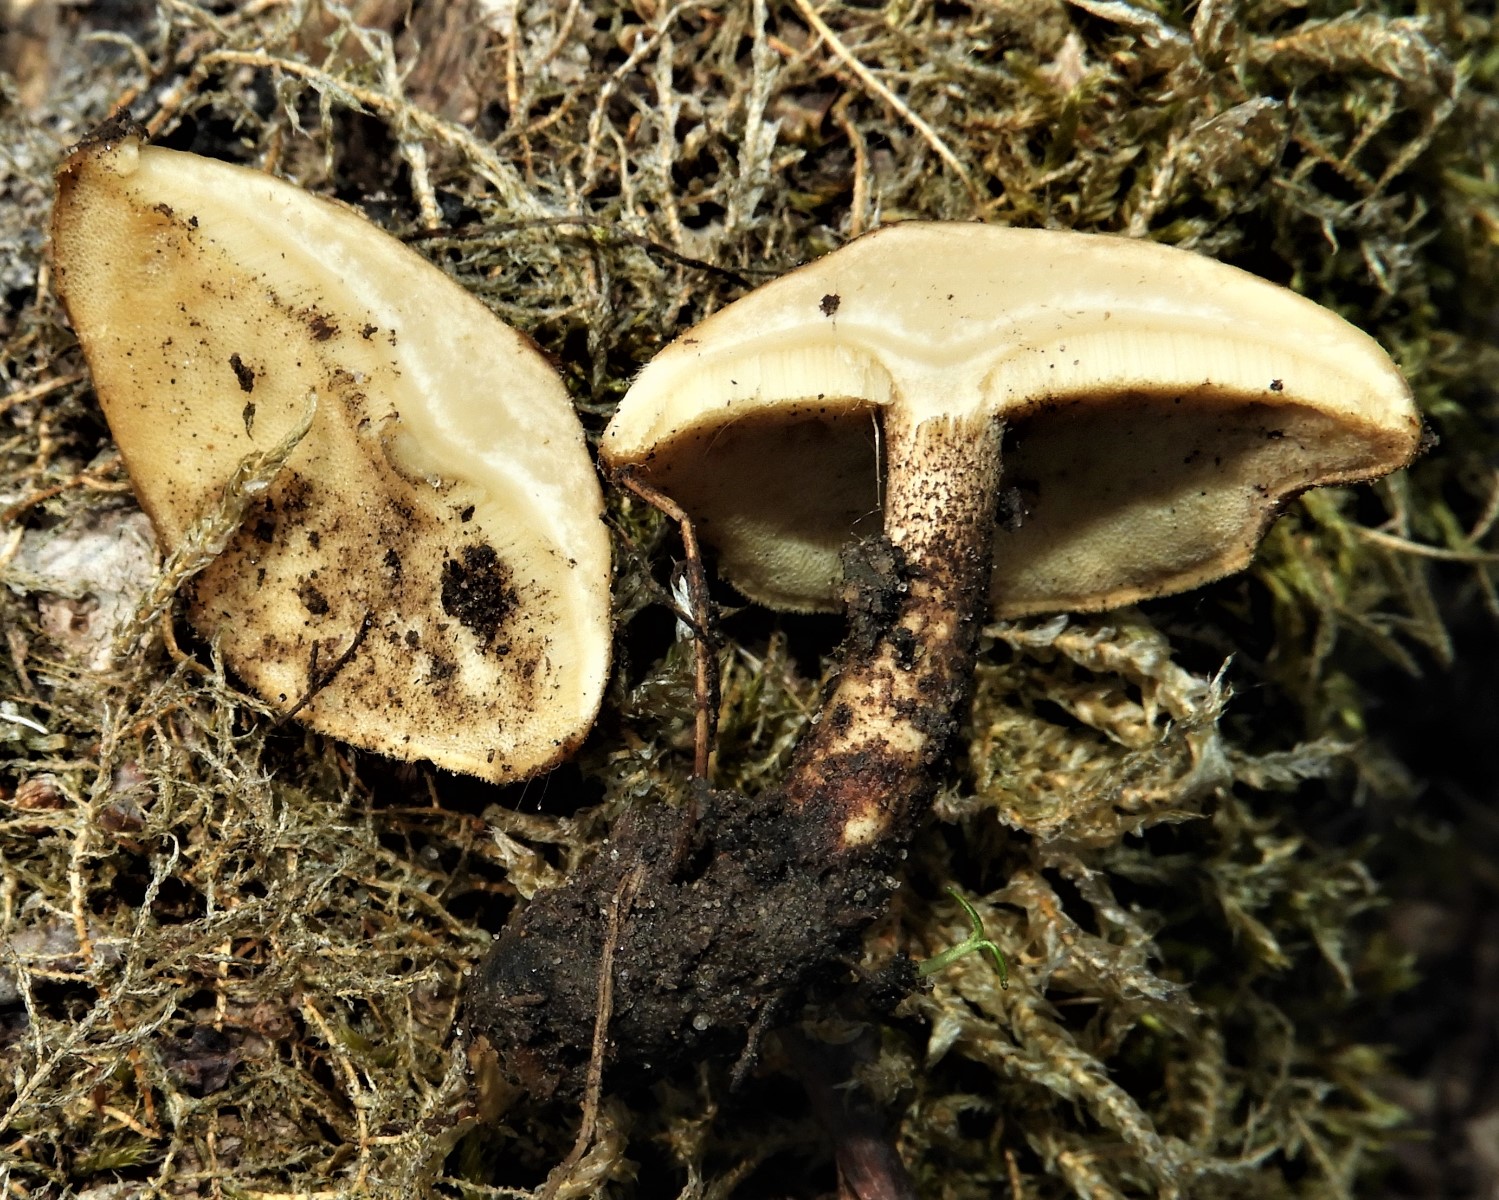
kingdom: Fungi
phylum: Basidiomycota
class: Agaricomycetes
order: Polyporales
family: Polyporaceae
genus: Lentinus
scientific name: Lentinus substrictus
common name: forårs-stilkporesvamp
